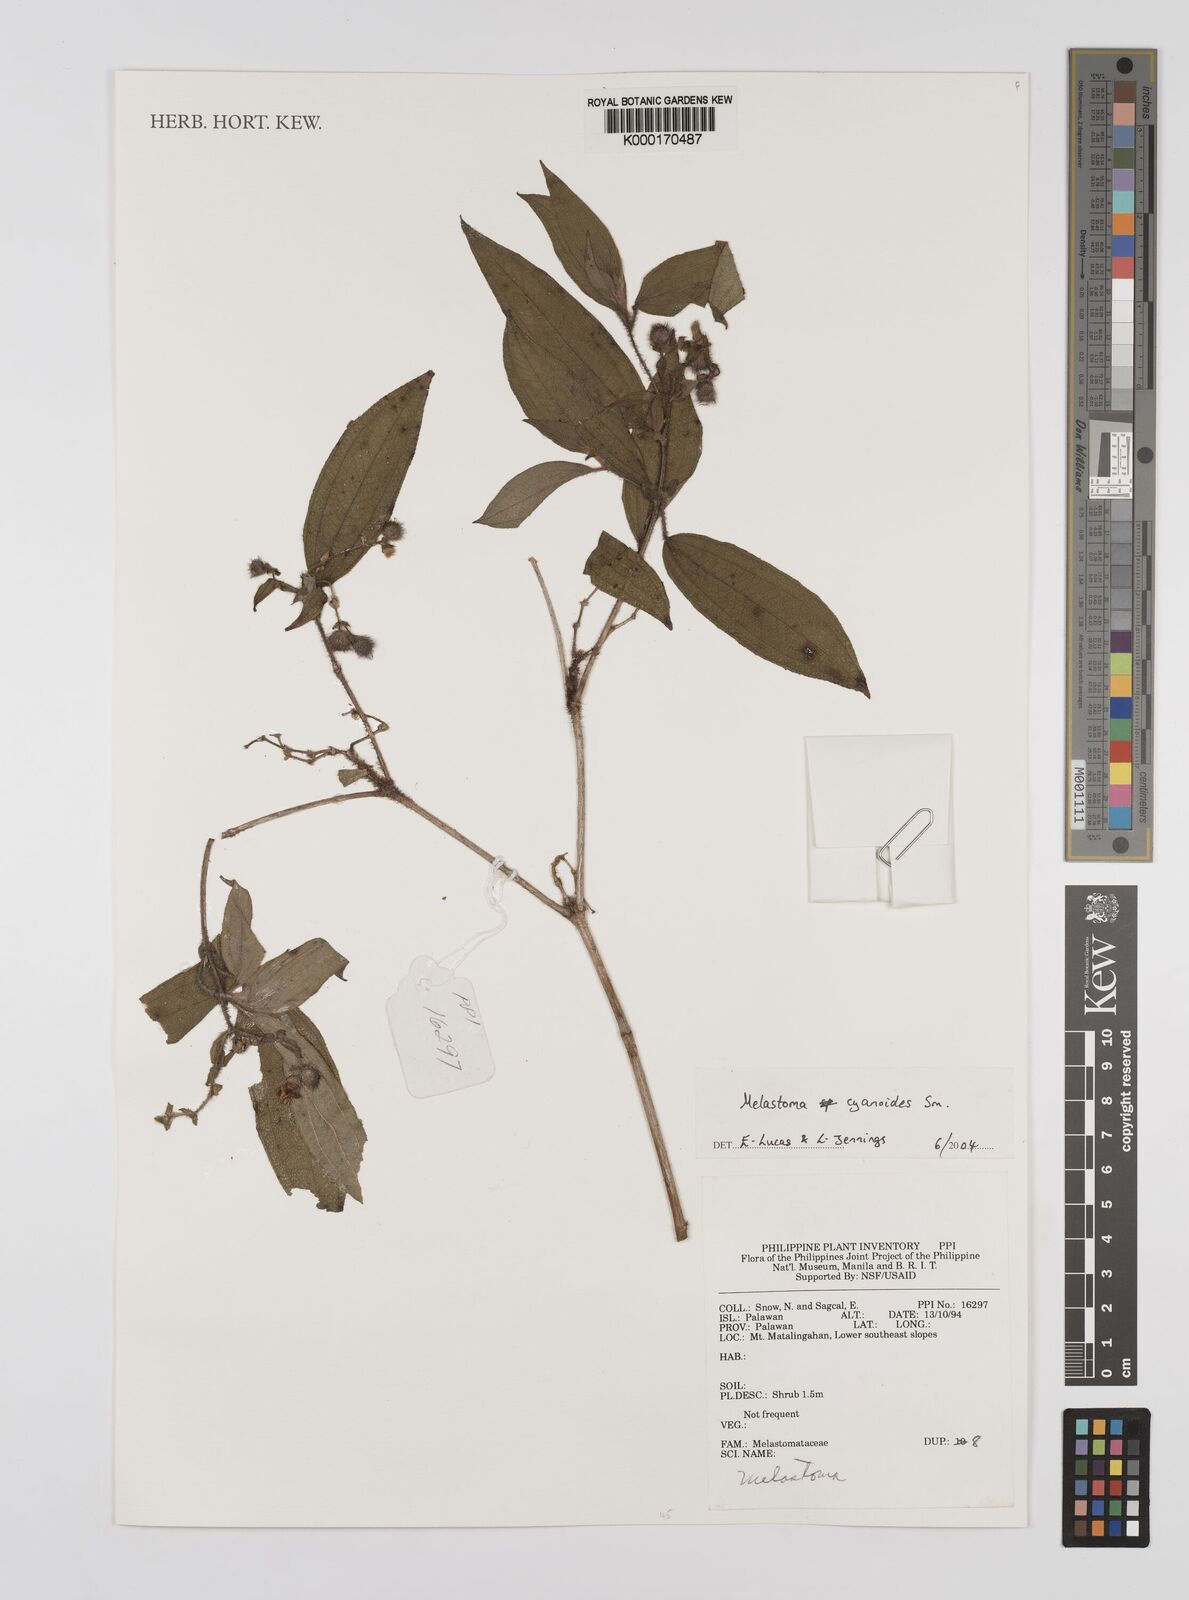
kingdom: Plantae
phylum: Tracheophyta
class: Magnoliopsida
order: Myrtales
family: Melastomataceae
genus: Melastoma
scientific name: Melastoma cyanoides
